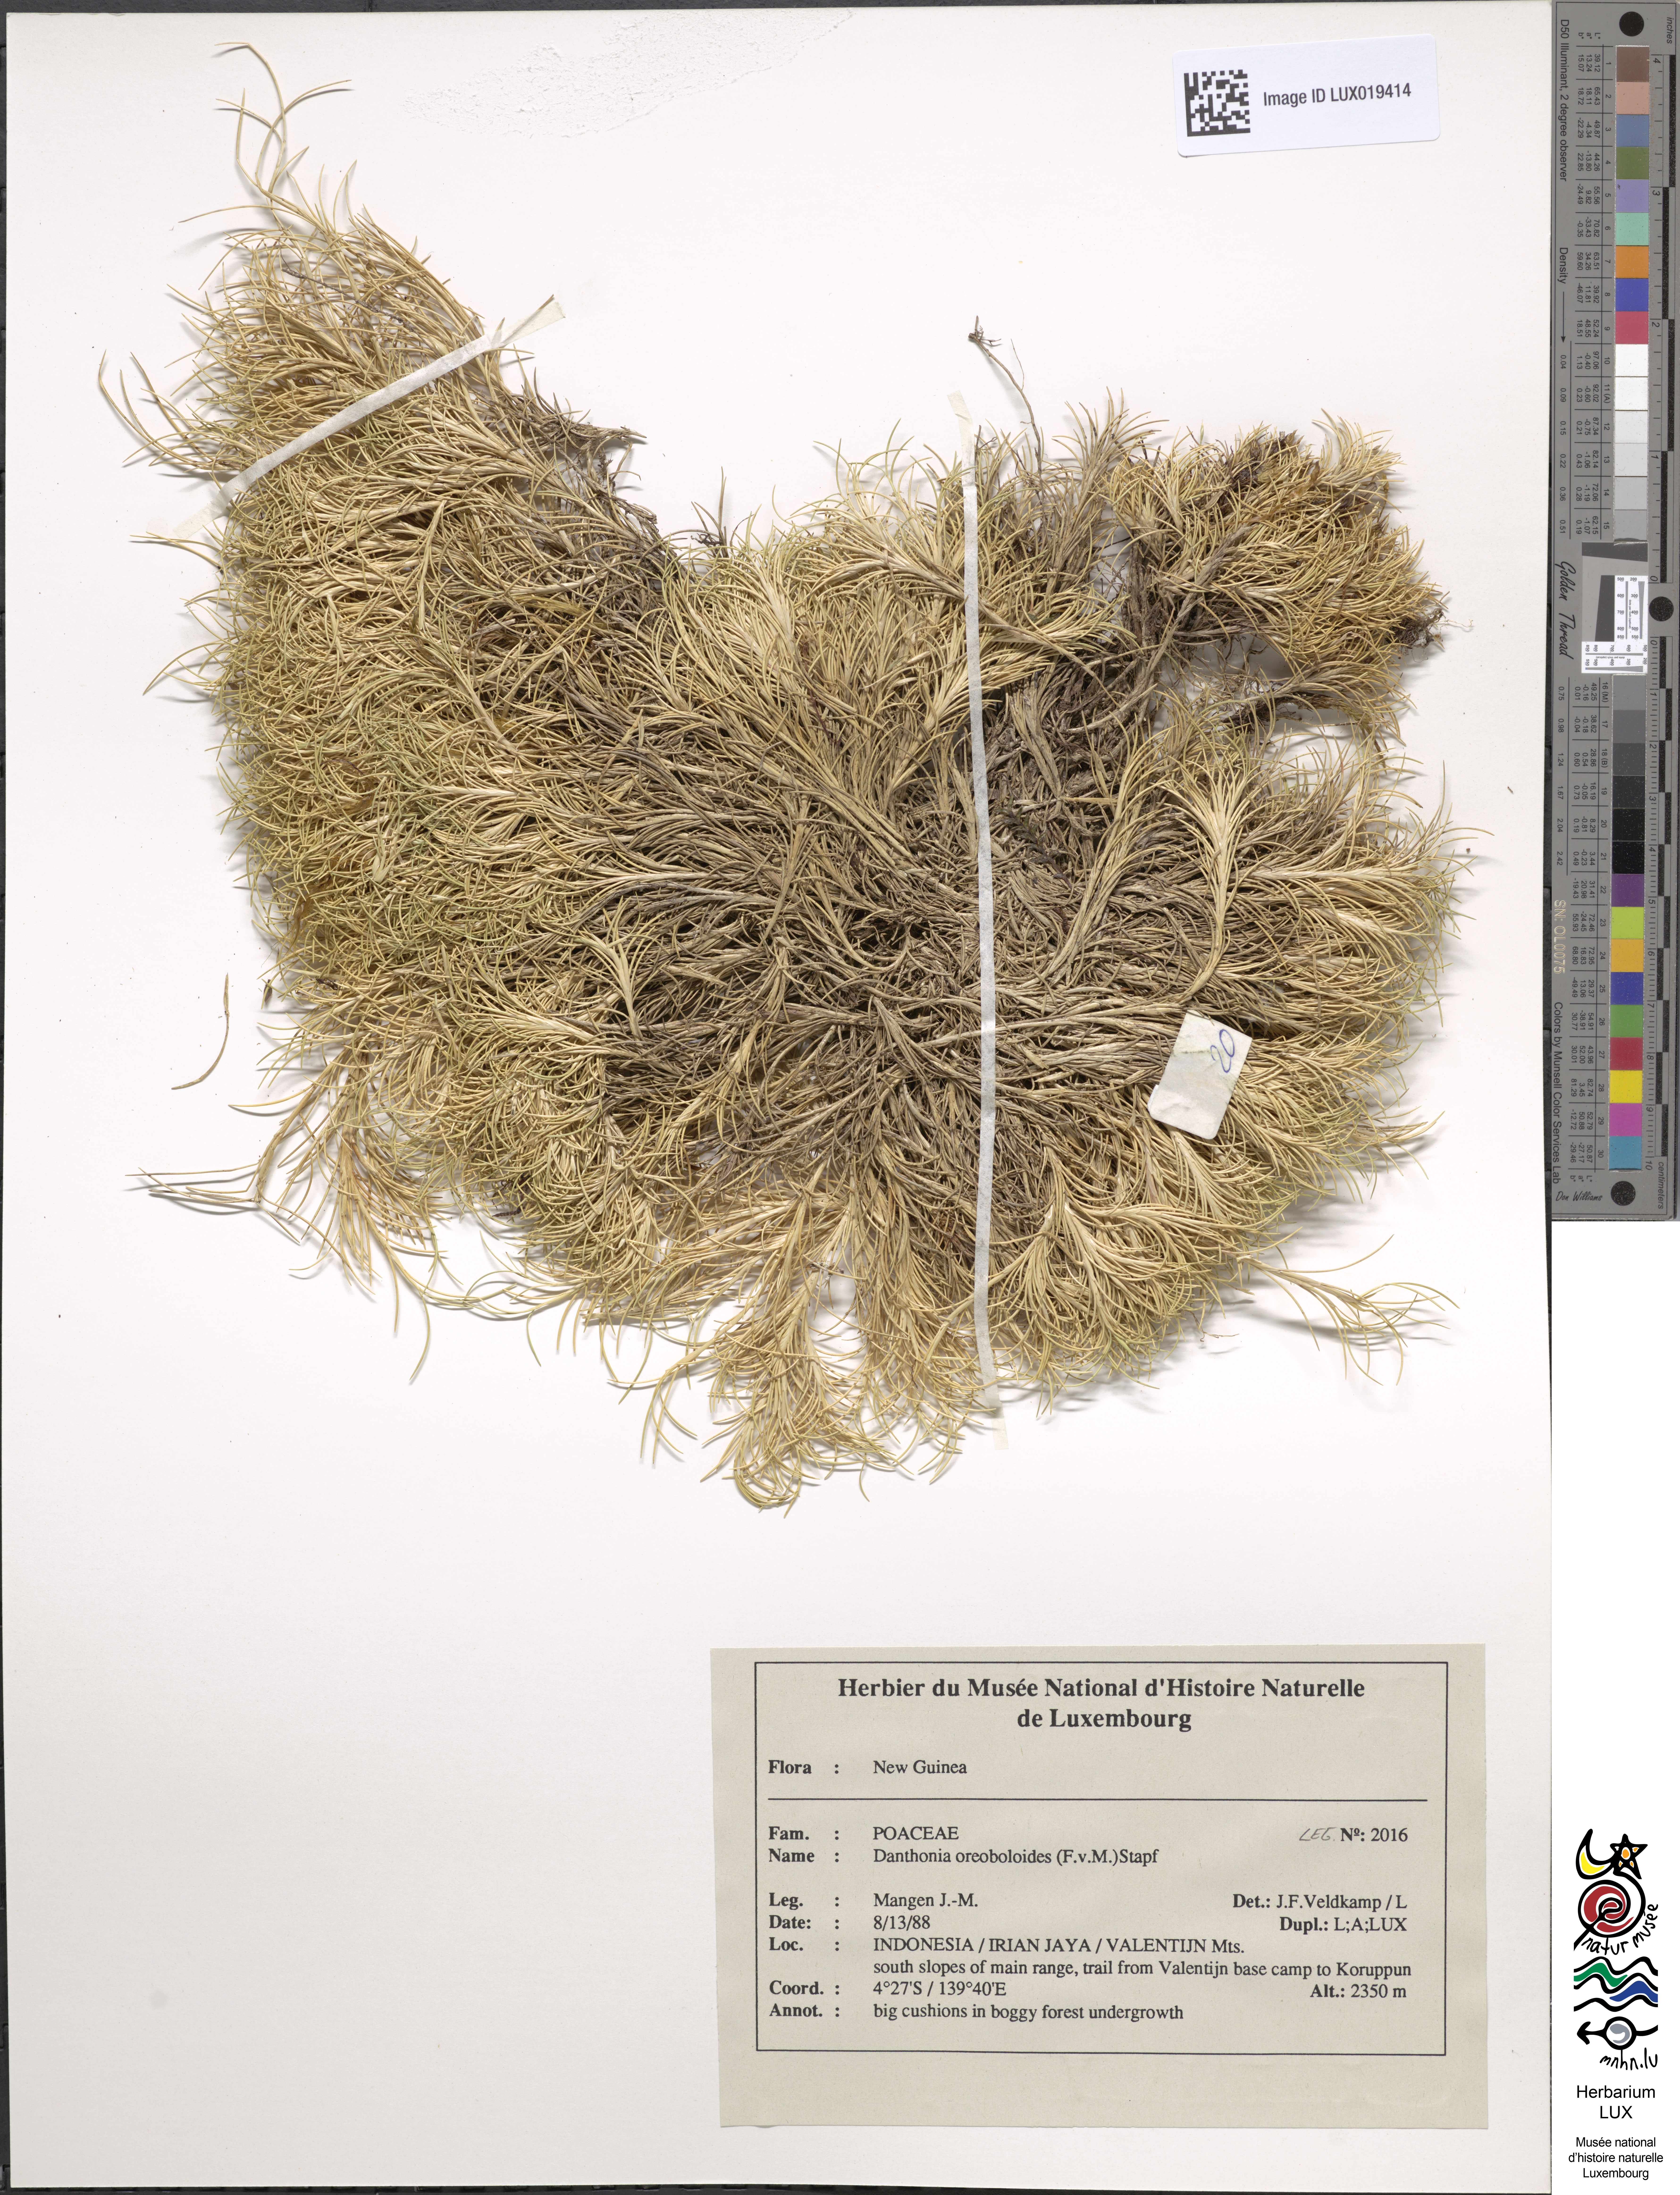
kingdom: Plantae
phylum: Tracheophyta
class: Liliopsida
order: Poales
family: Poaceae
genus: Rytidosperma
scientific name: Rytidosperma oreoboloides
